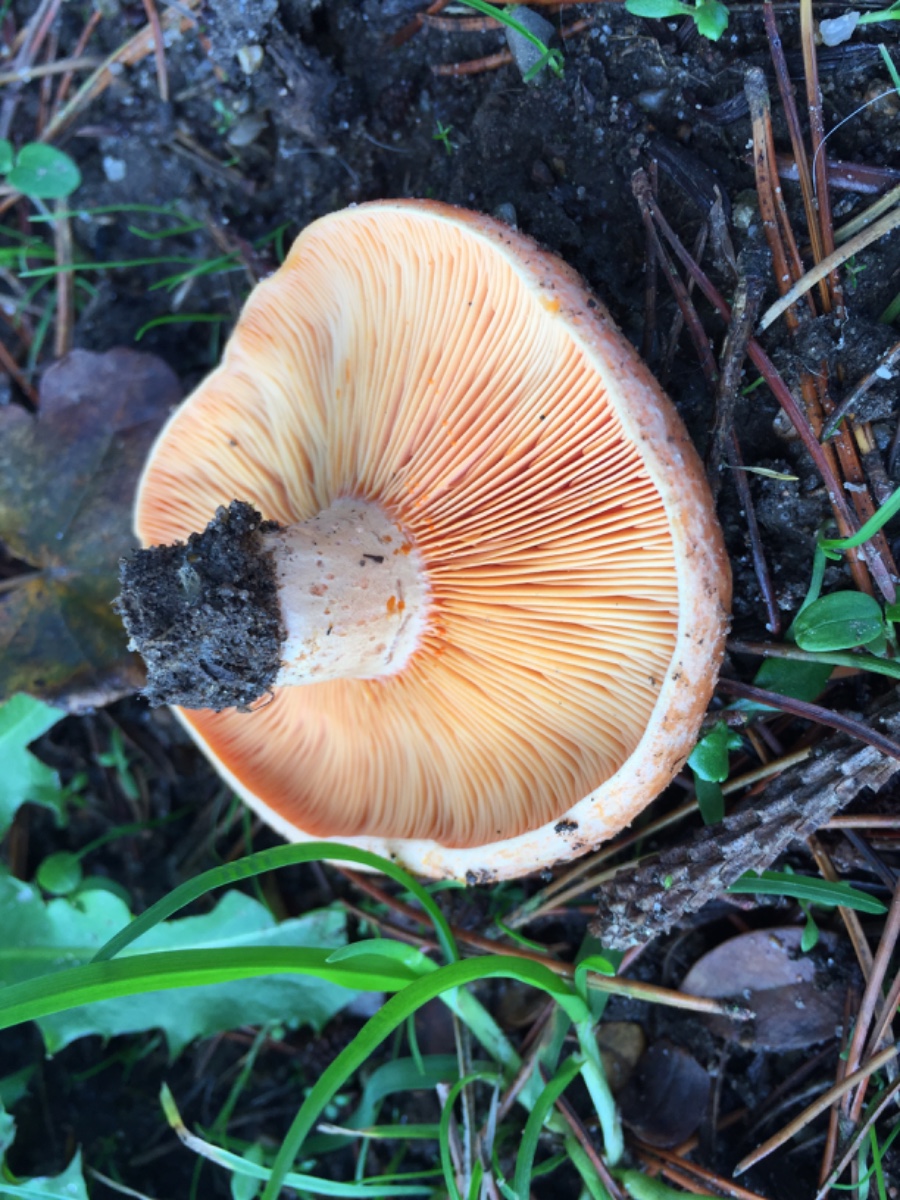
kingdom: Fungi
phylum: Basidiomycota
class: Agaricomycetes
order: Russulales
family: Russulaceae
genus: Lactarius
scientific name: Lactarius deliciosus
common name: velsmagende mælkehat
